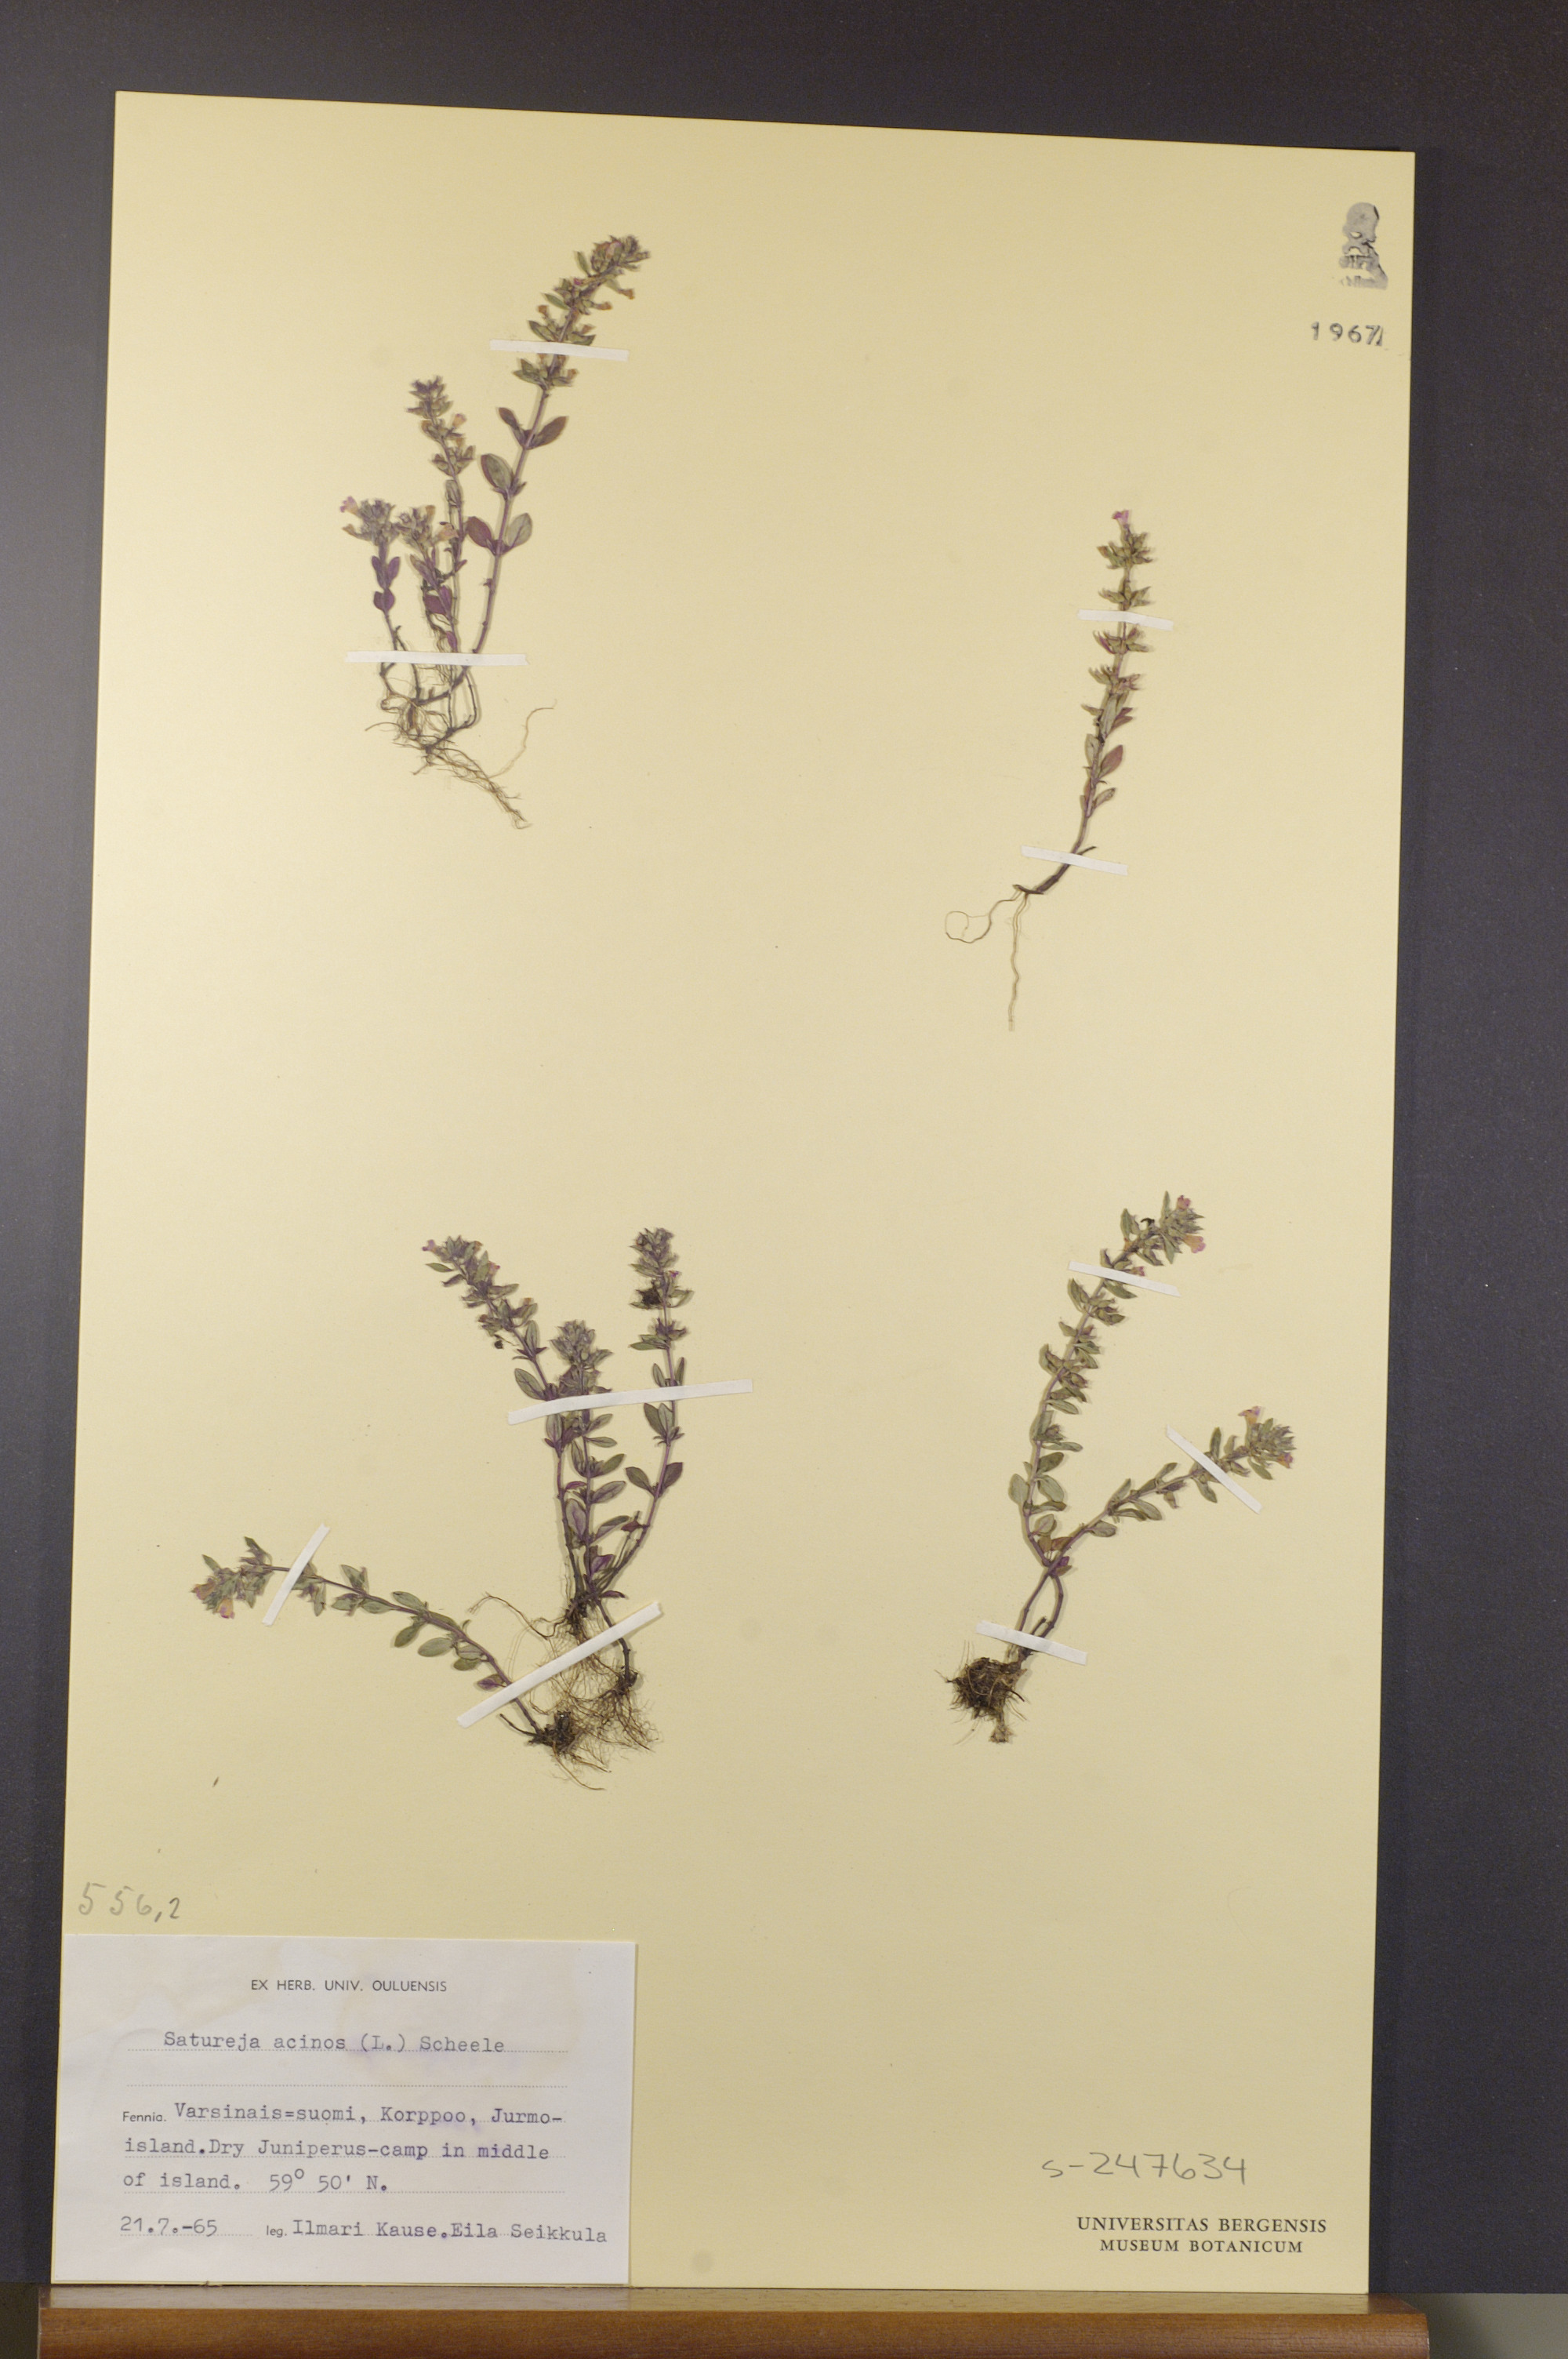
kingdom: Plantae
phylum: Tracheophyta
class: Magnoliopsida
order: Lamiales
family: Lamiaceae
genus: Clinopodium
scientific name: Clinopodium acinos
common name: Basil thyme
